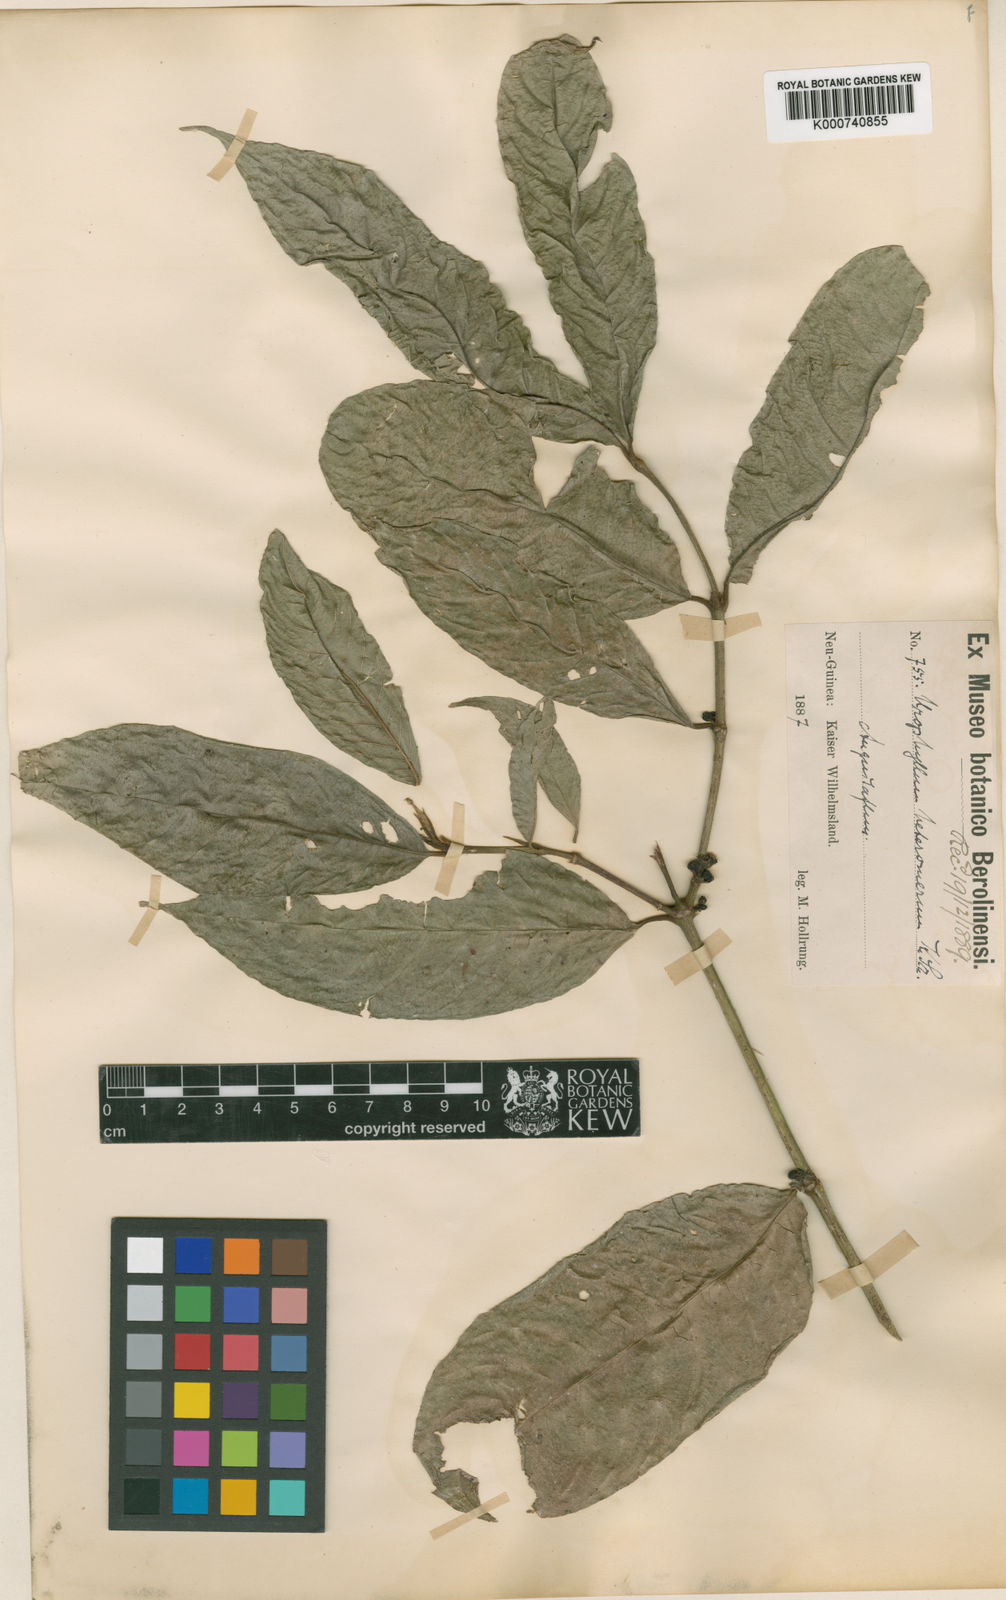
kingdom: Plantae
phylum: Tracheophyta
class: Magnoliopsida
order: Gentianales
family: Rubiaceae
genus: Urophyllum
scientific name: Urophyllum heteromerum
